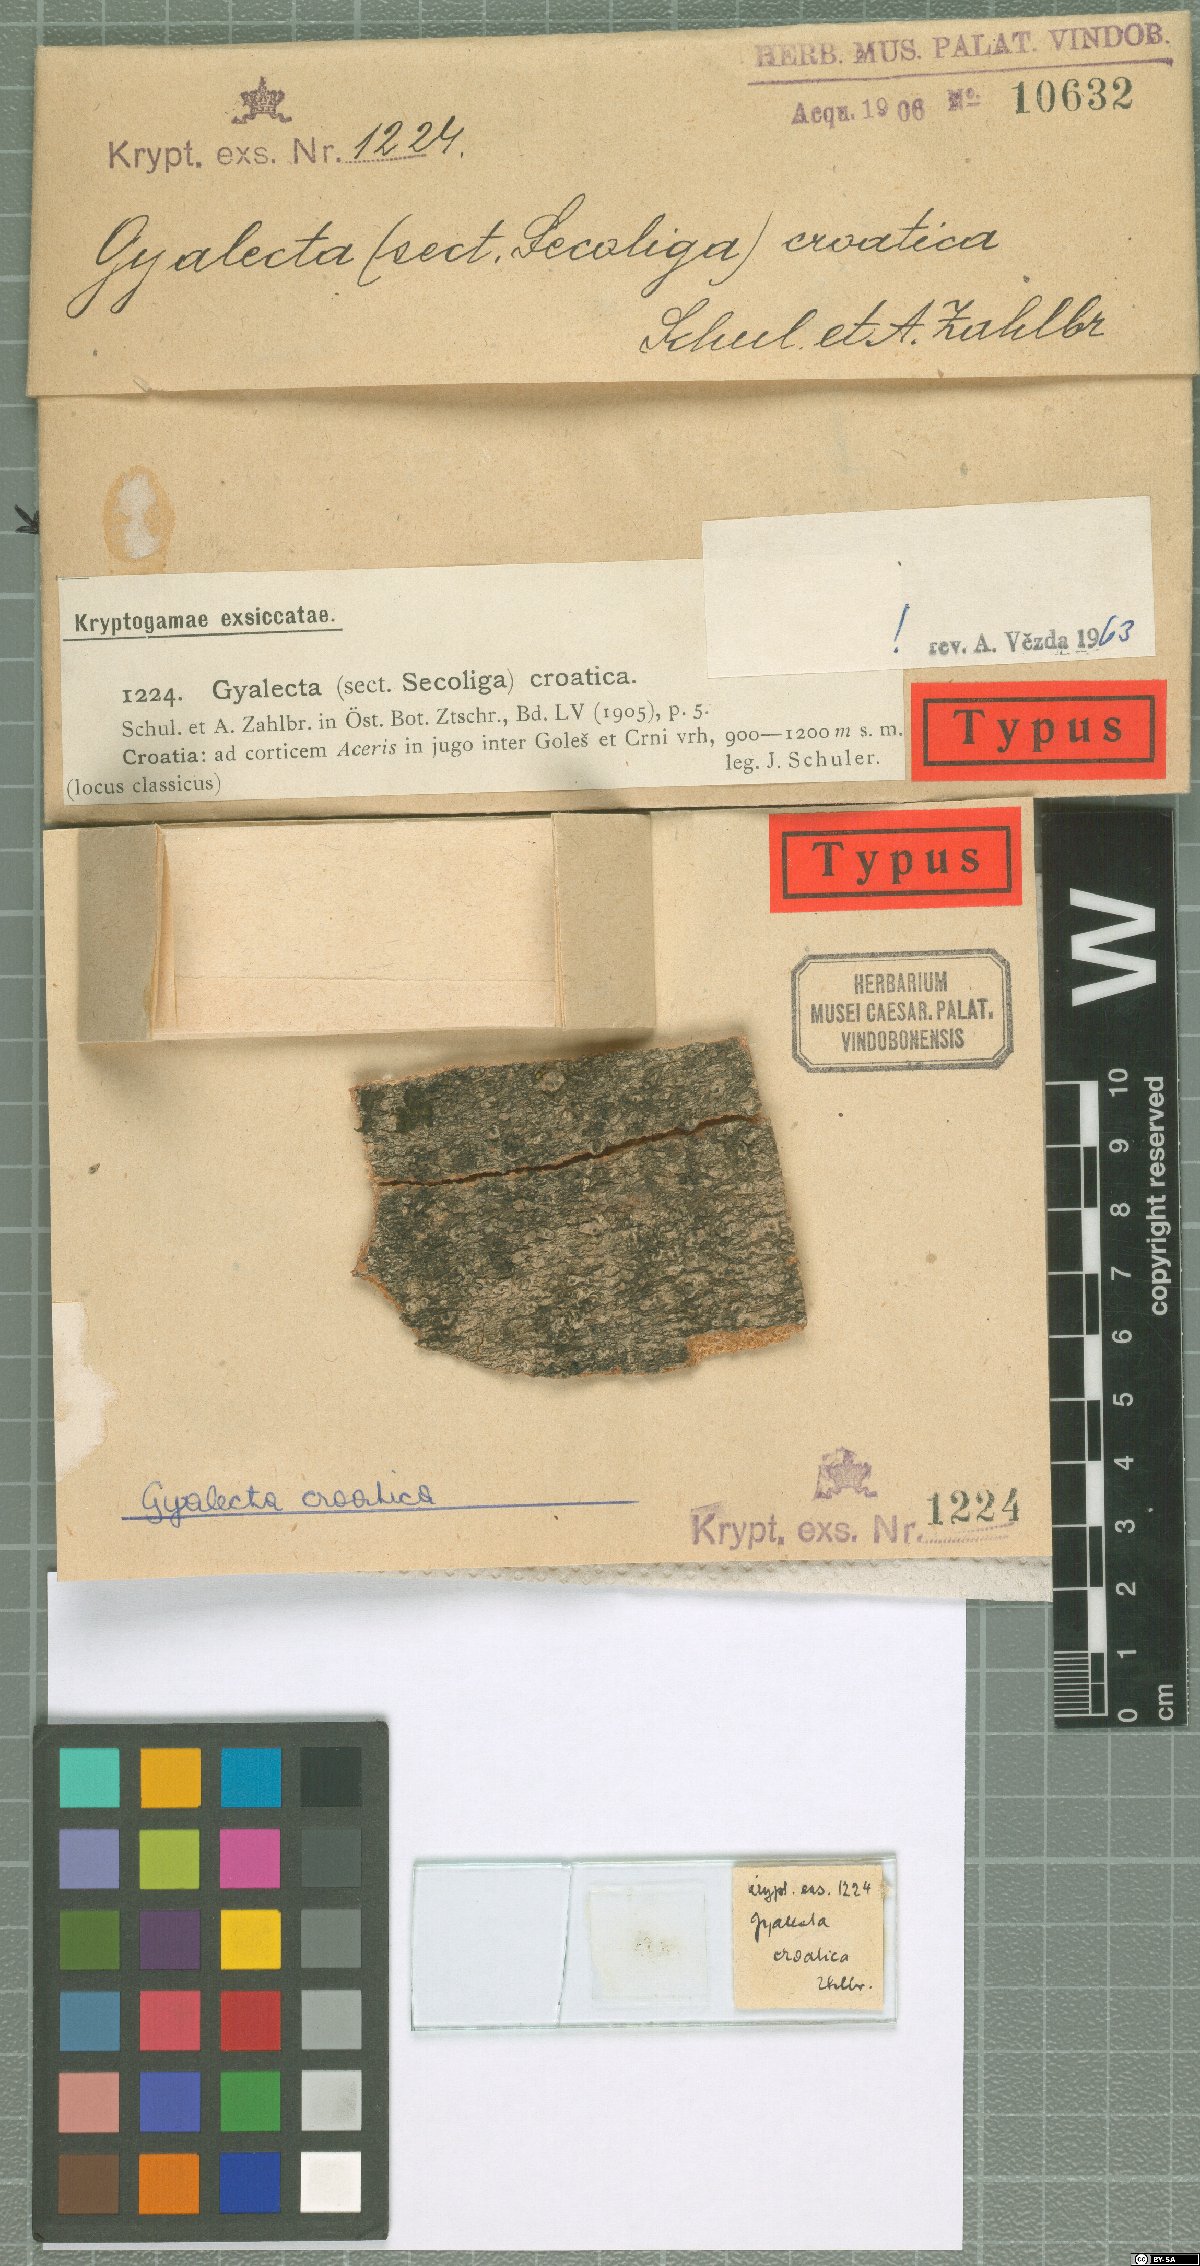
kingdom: Fungi
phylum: Ascomycota
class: Lecanoromycetes
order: Gyalectales
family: Gyalectaceae
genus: Gyalecta
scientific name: Gyalecta derivata
